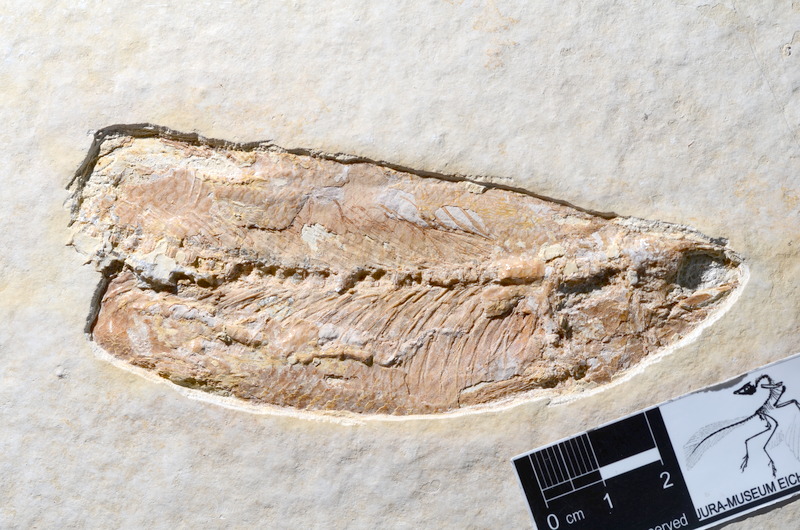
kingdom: Animalia
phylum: Chordata
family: Ascalaboidae
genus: Tharsis
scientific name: Tharsis dubius
